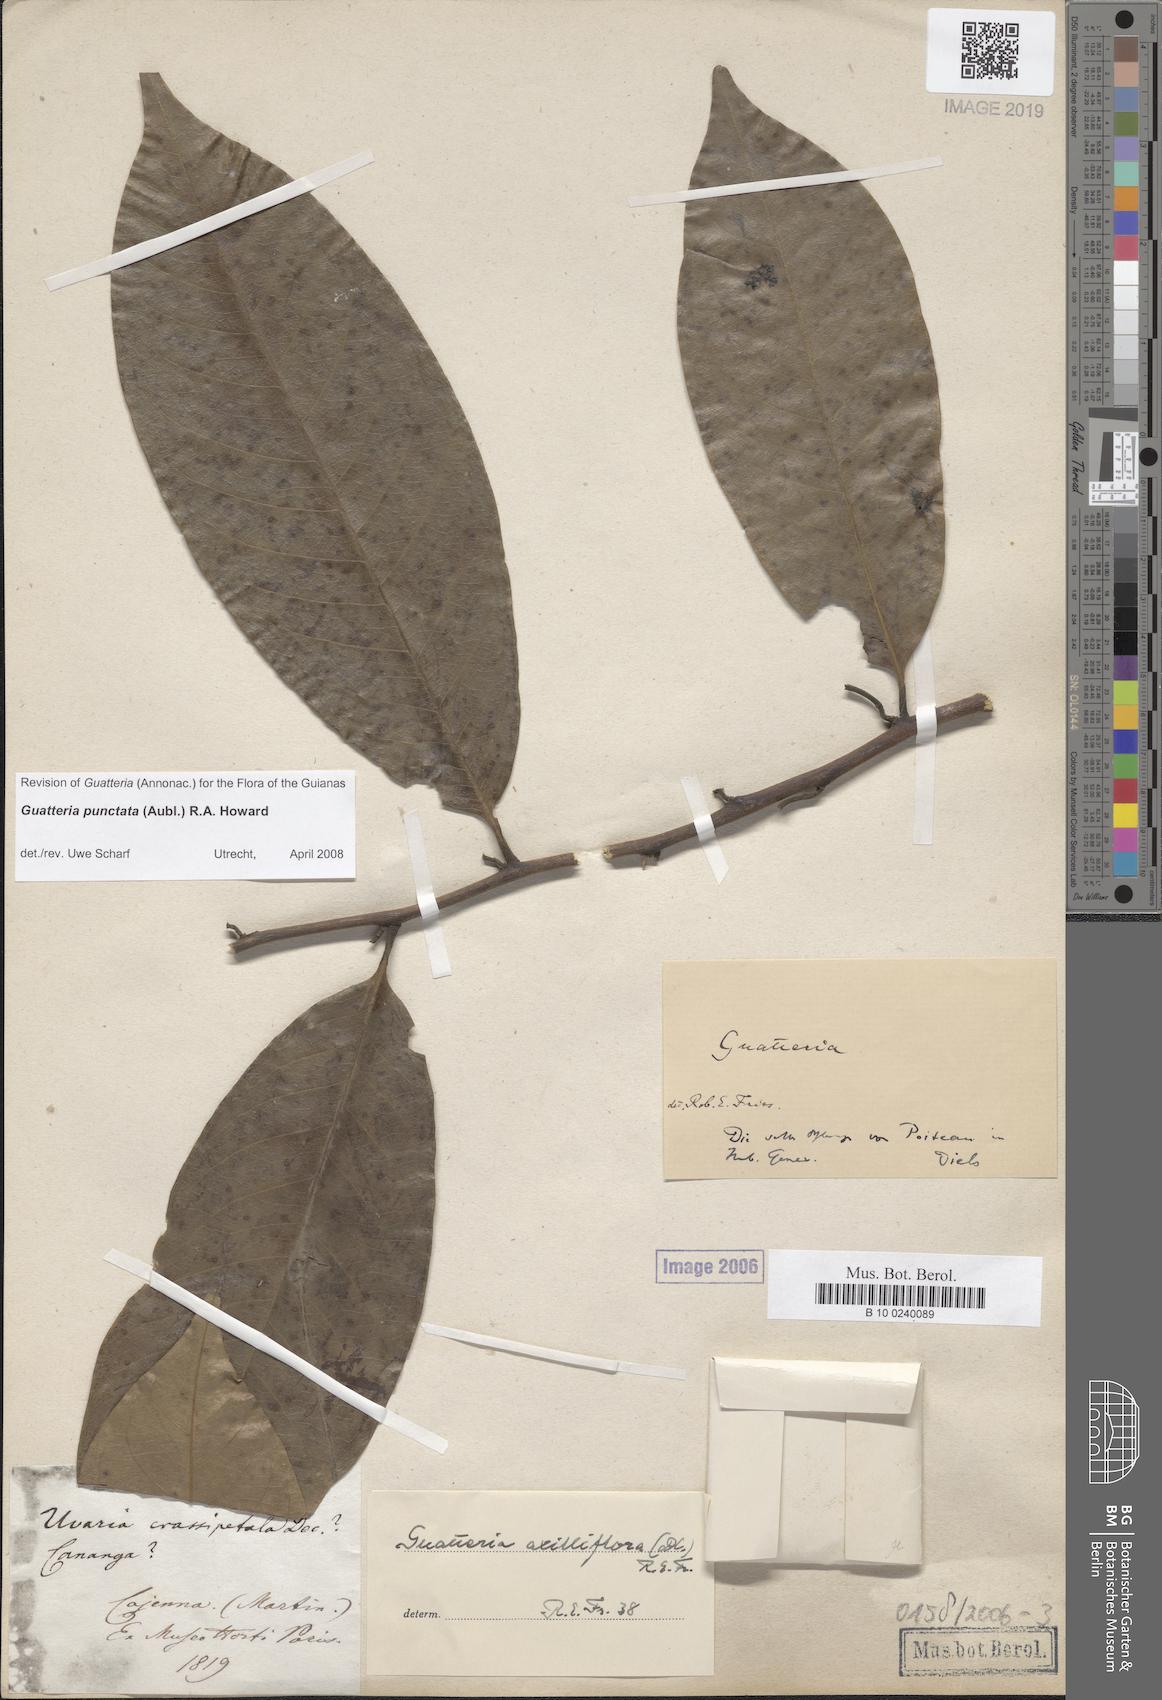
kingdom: Plantae
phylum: Tracheophyta
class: Magnoliopsida
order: Magnoliales
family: Annonaceae
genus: Guatteria
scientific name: Guatteria punctata
